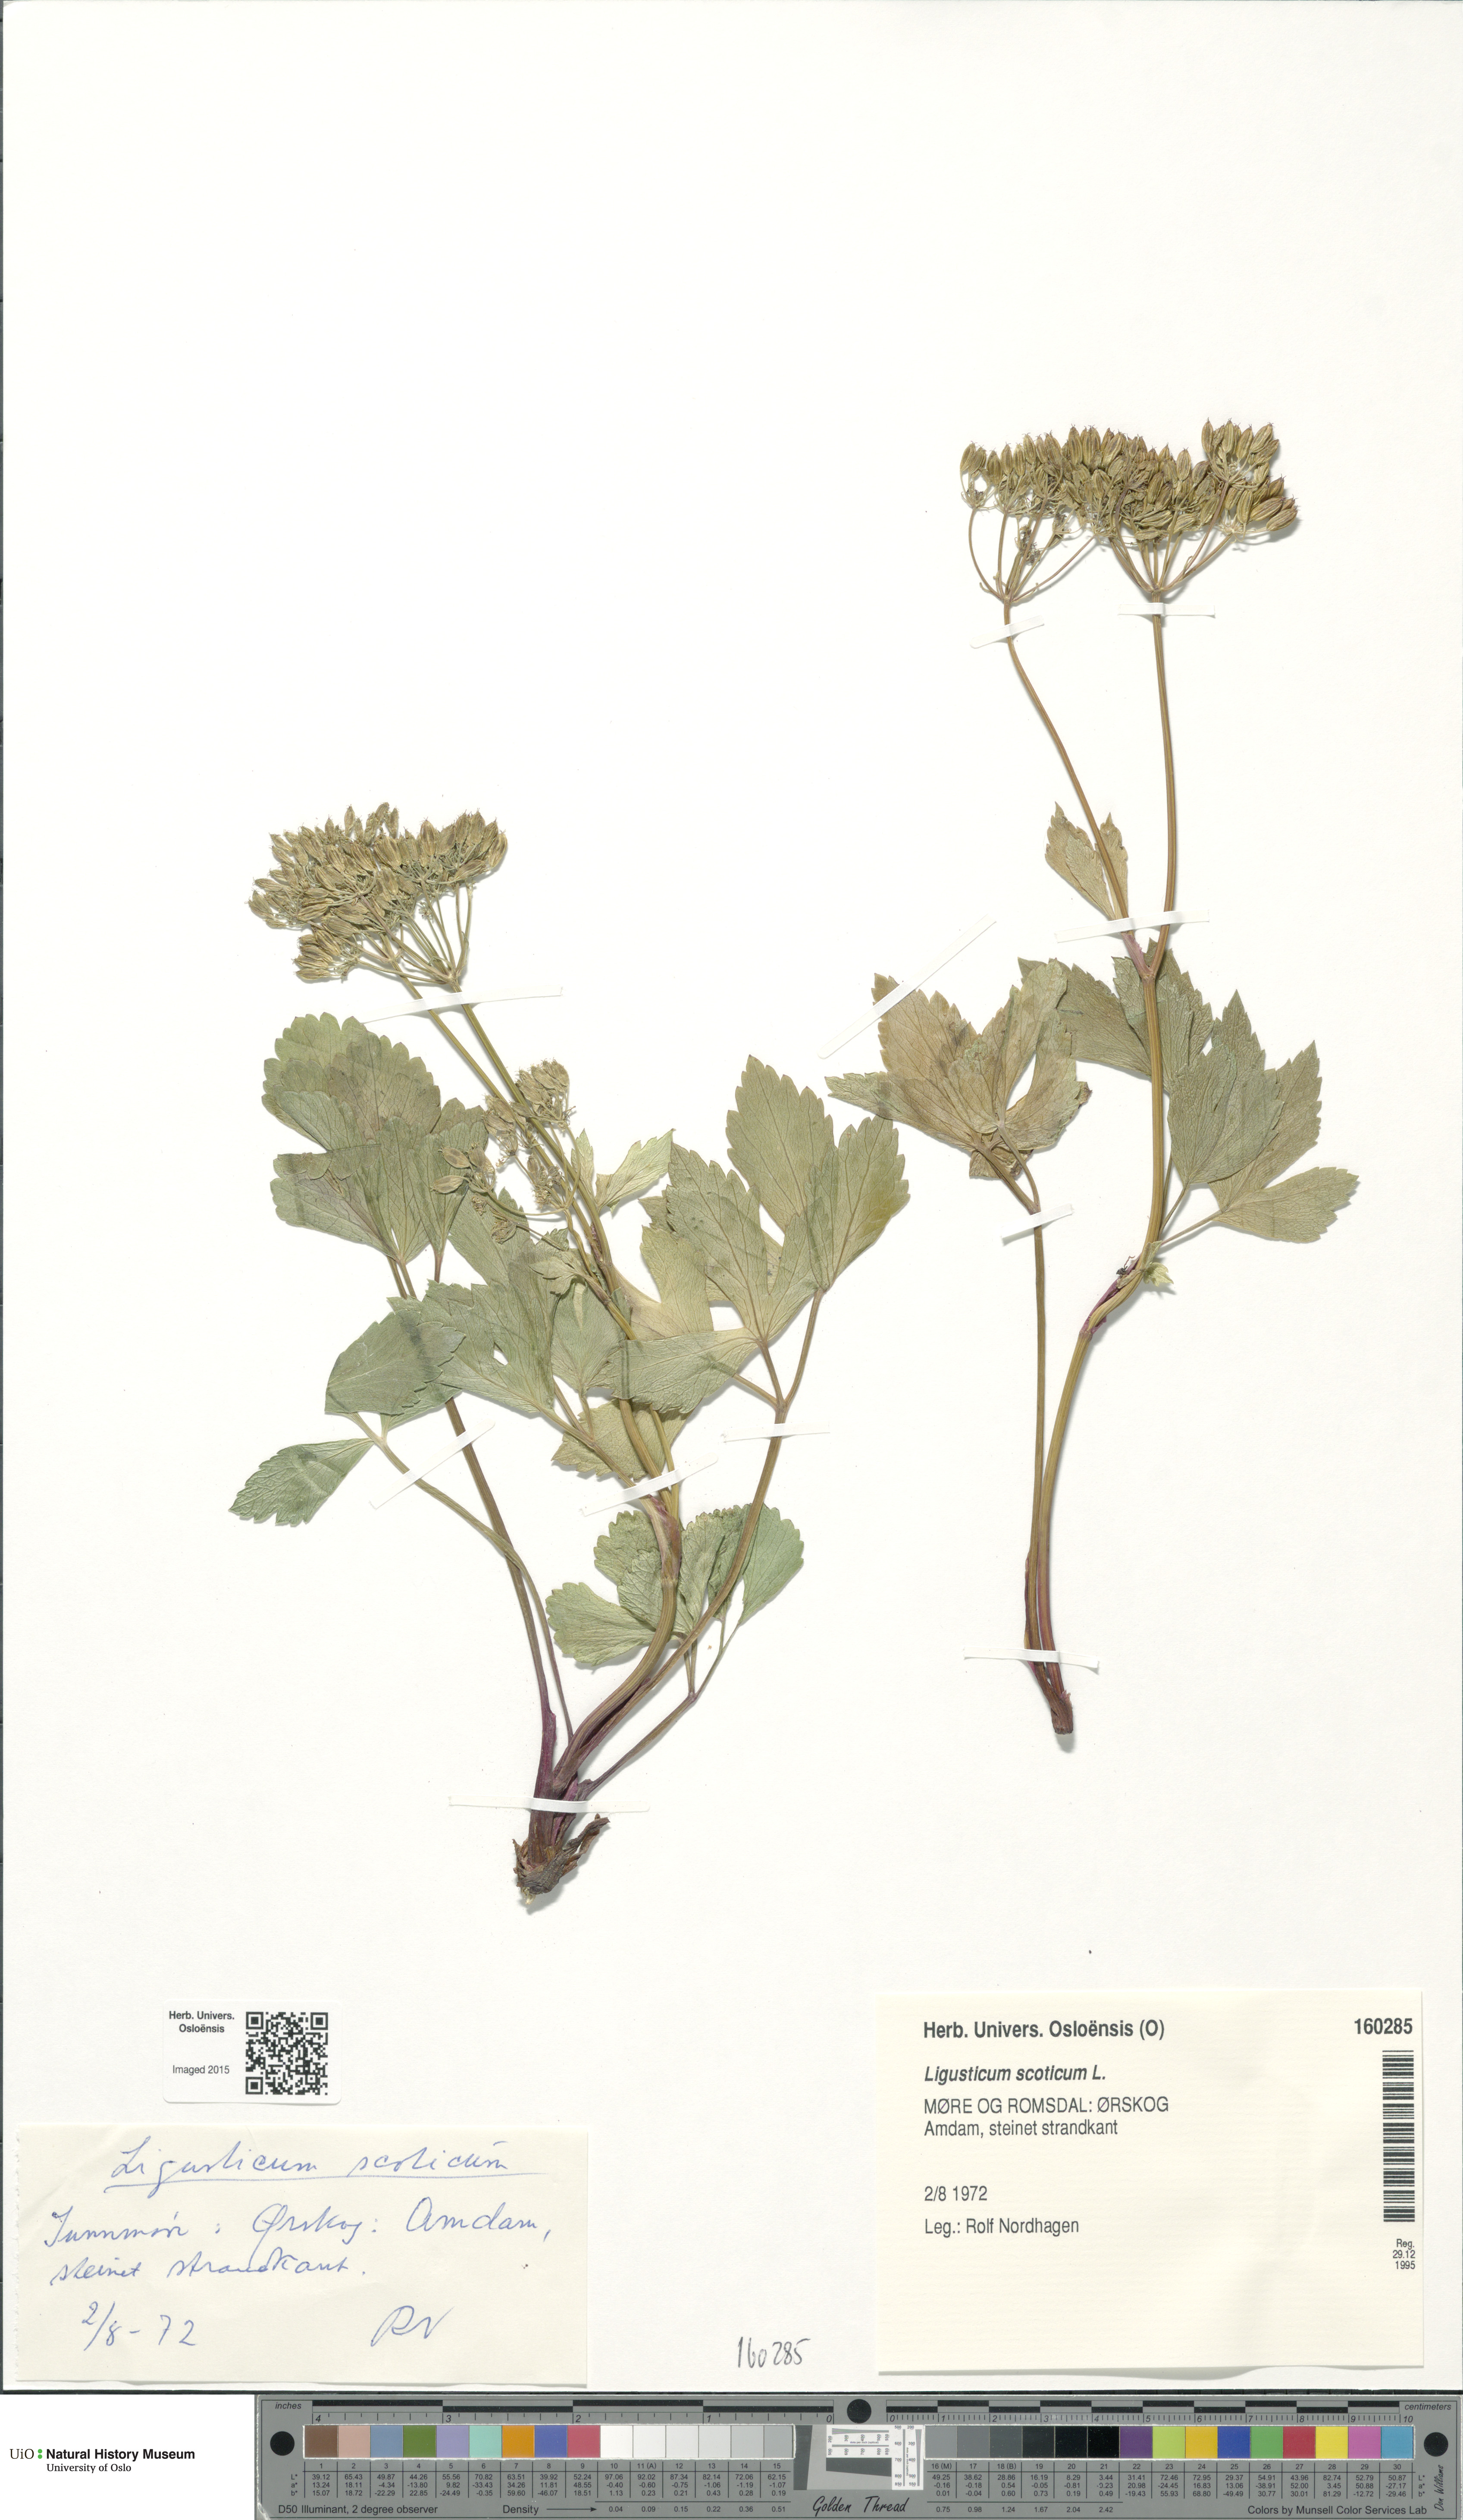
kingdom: Plantae
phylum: Tracheophyta
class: Magnoliopsida
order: Apiales
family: Apiaceae
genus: Ligusticum
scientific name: Ligusticum scothicum
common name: Beach lovage
